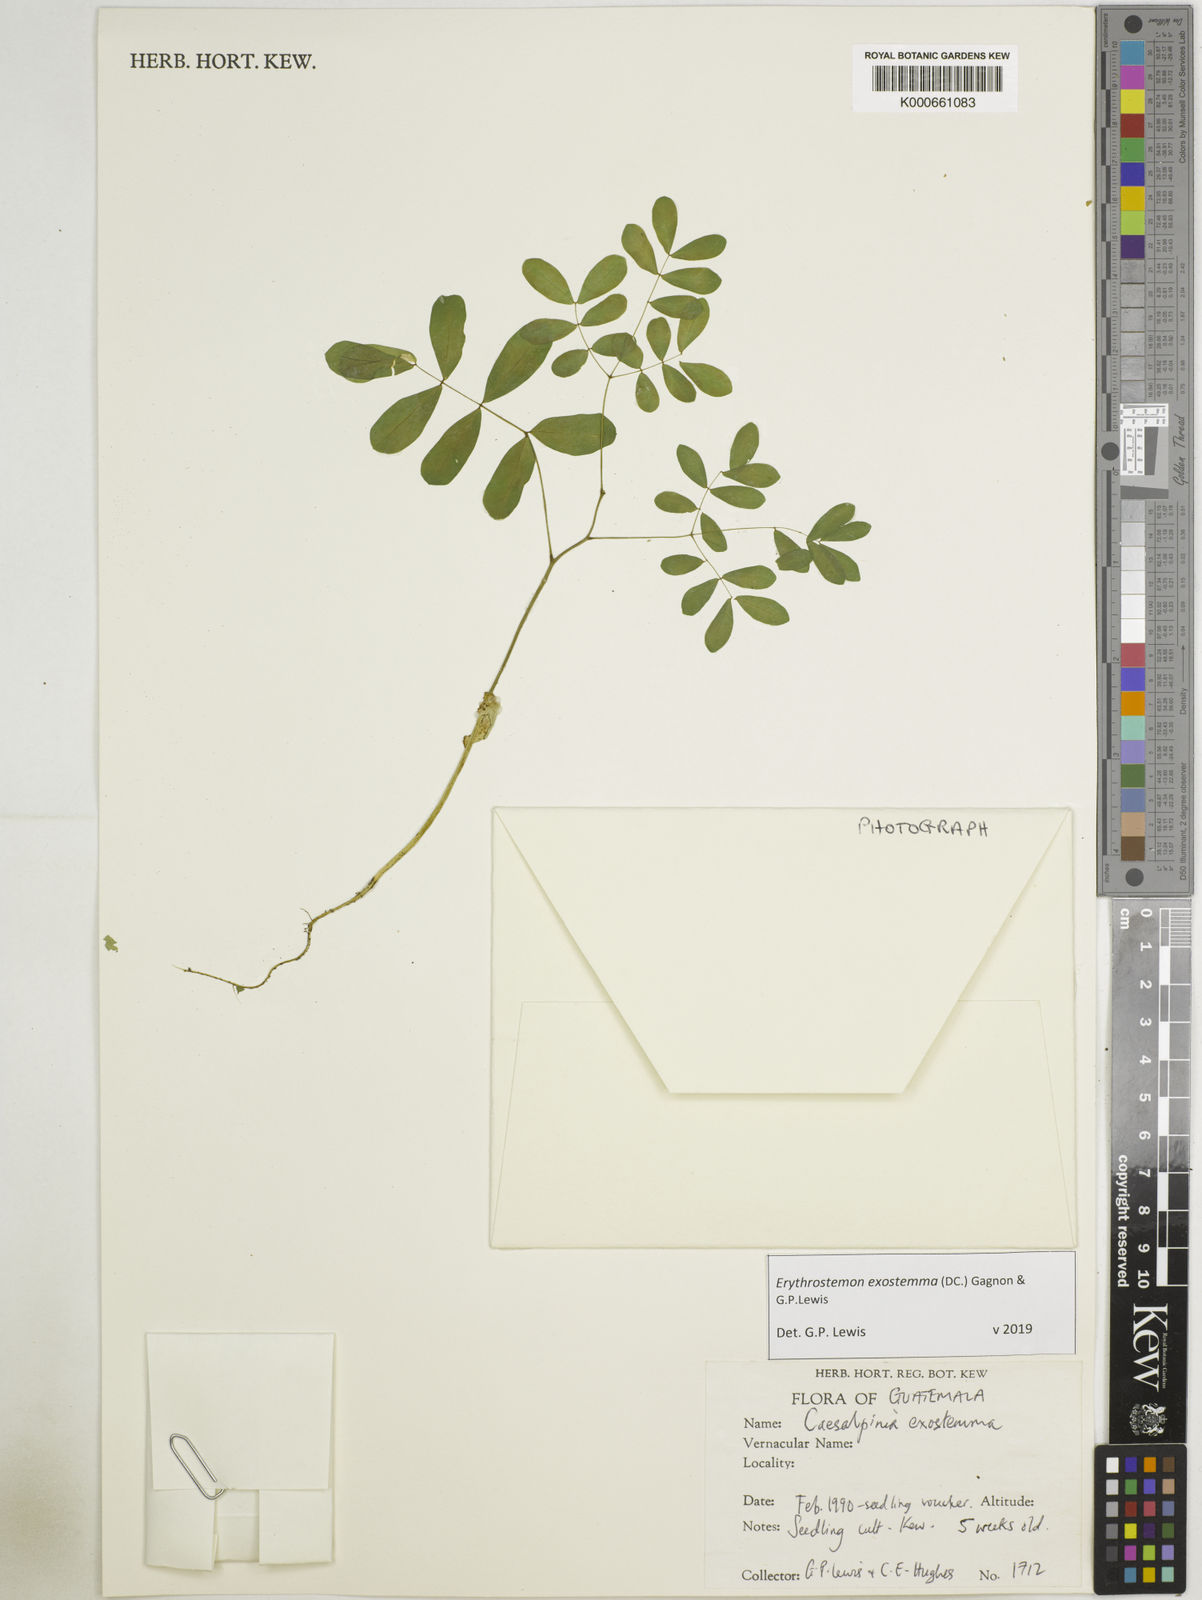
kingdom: Plantae
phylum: Tracheophyta
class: Magnoliopsida
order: Fabales
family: Fabaceae
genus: Erythrostemon
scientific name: Erythrostemon exostemma
